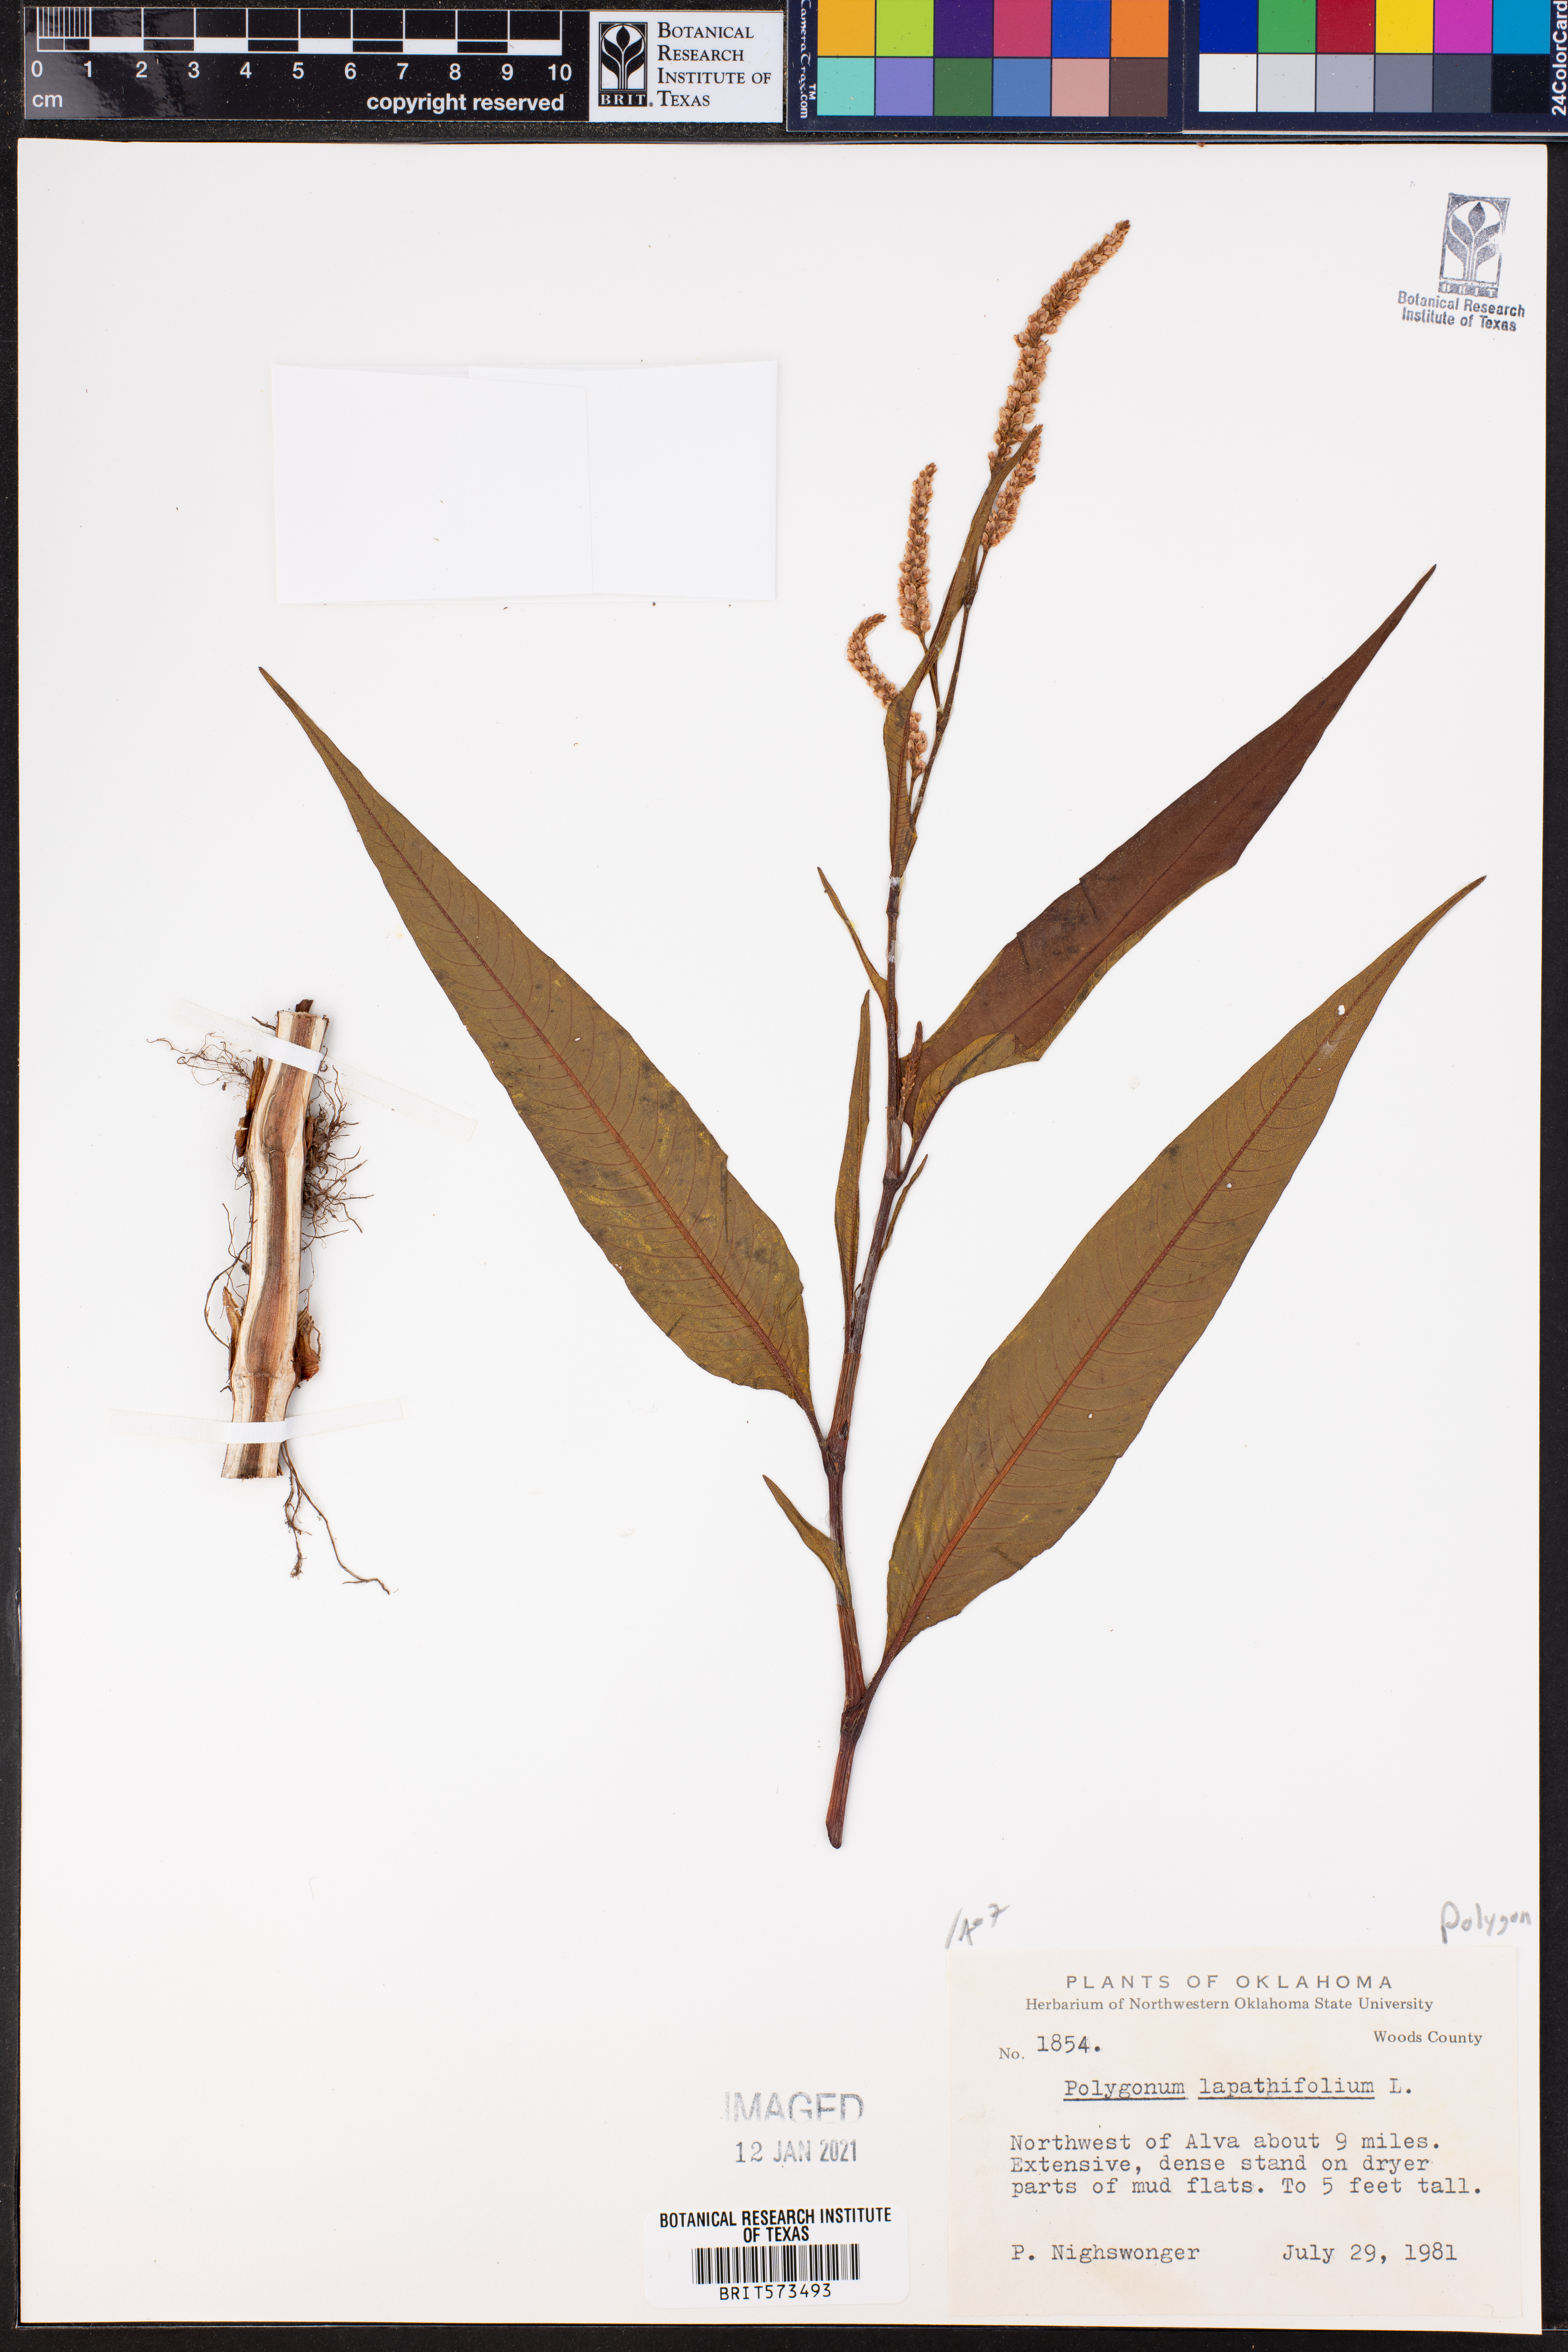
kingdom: Plantae
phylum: Tracheophyta
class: Magnoliopsida
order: Caryophyllales
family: Polygonaceae
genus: Persicaria
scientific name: Persicaria lapathifolia
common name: Curlytop knotweed
